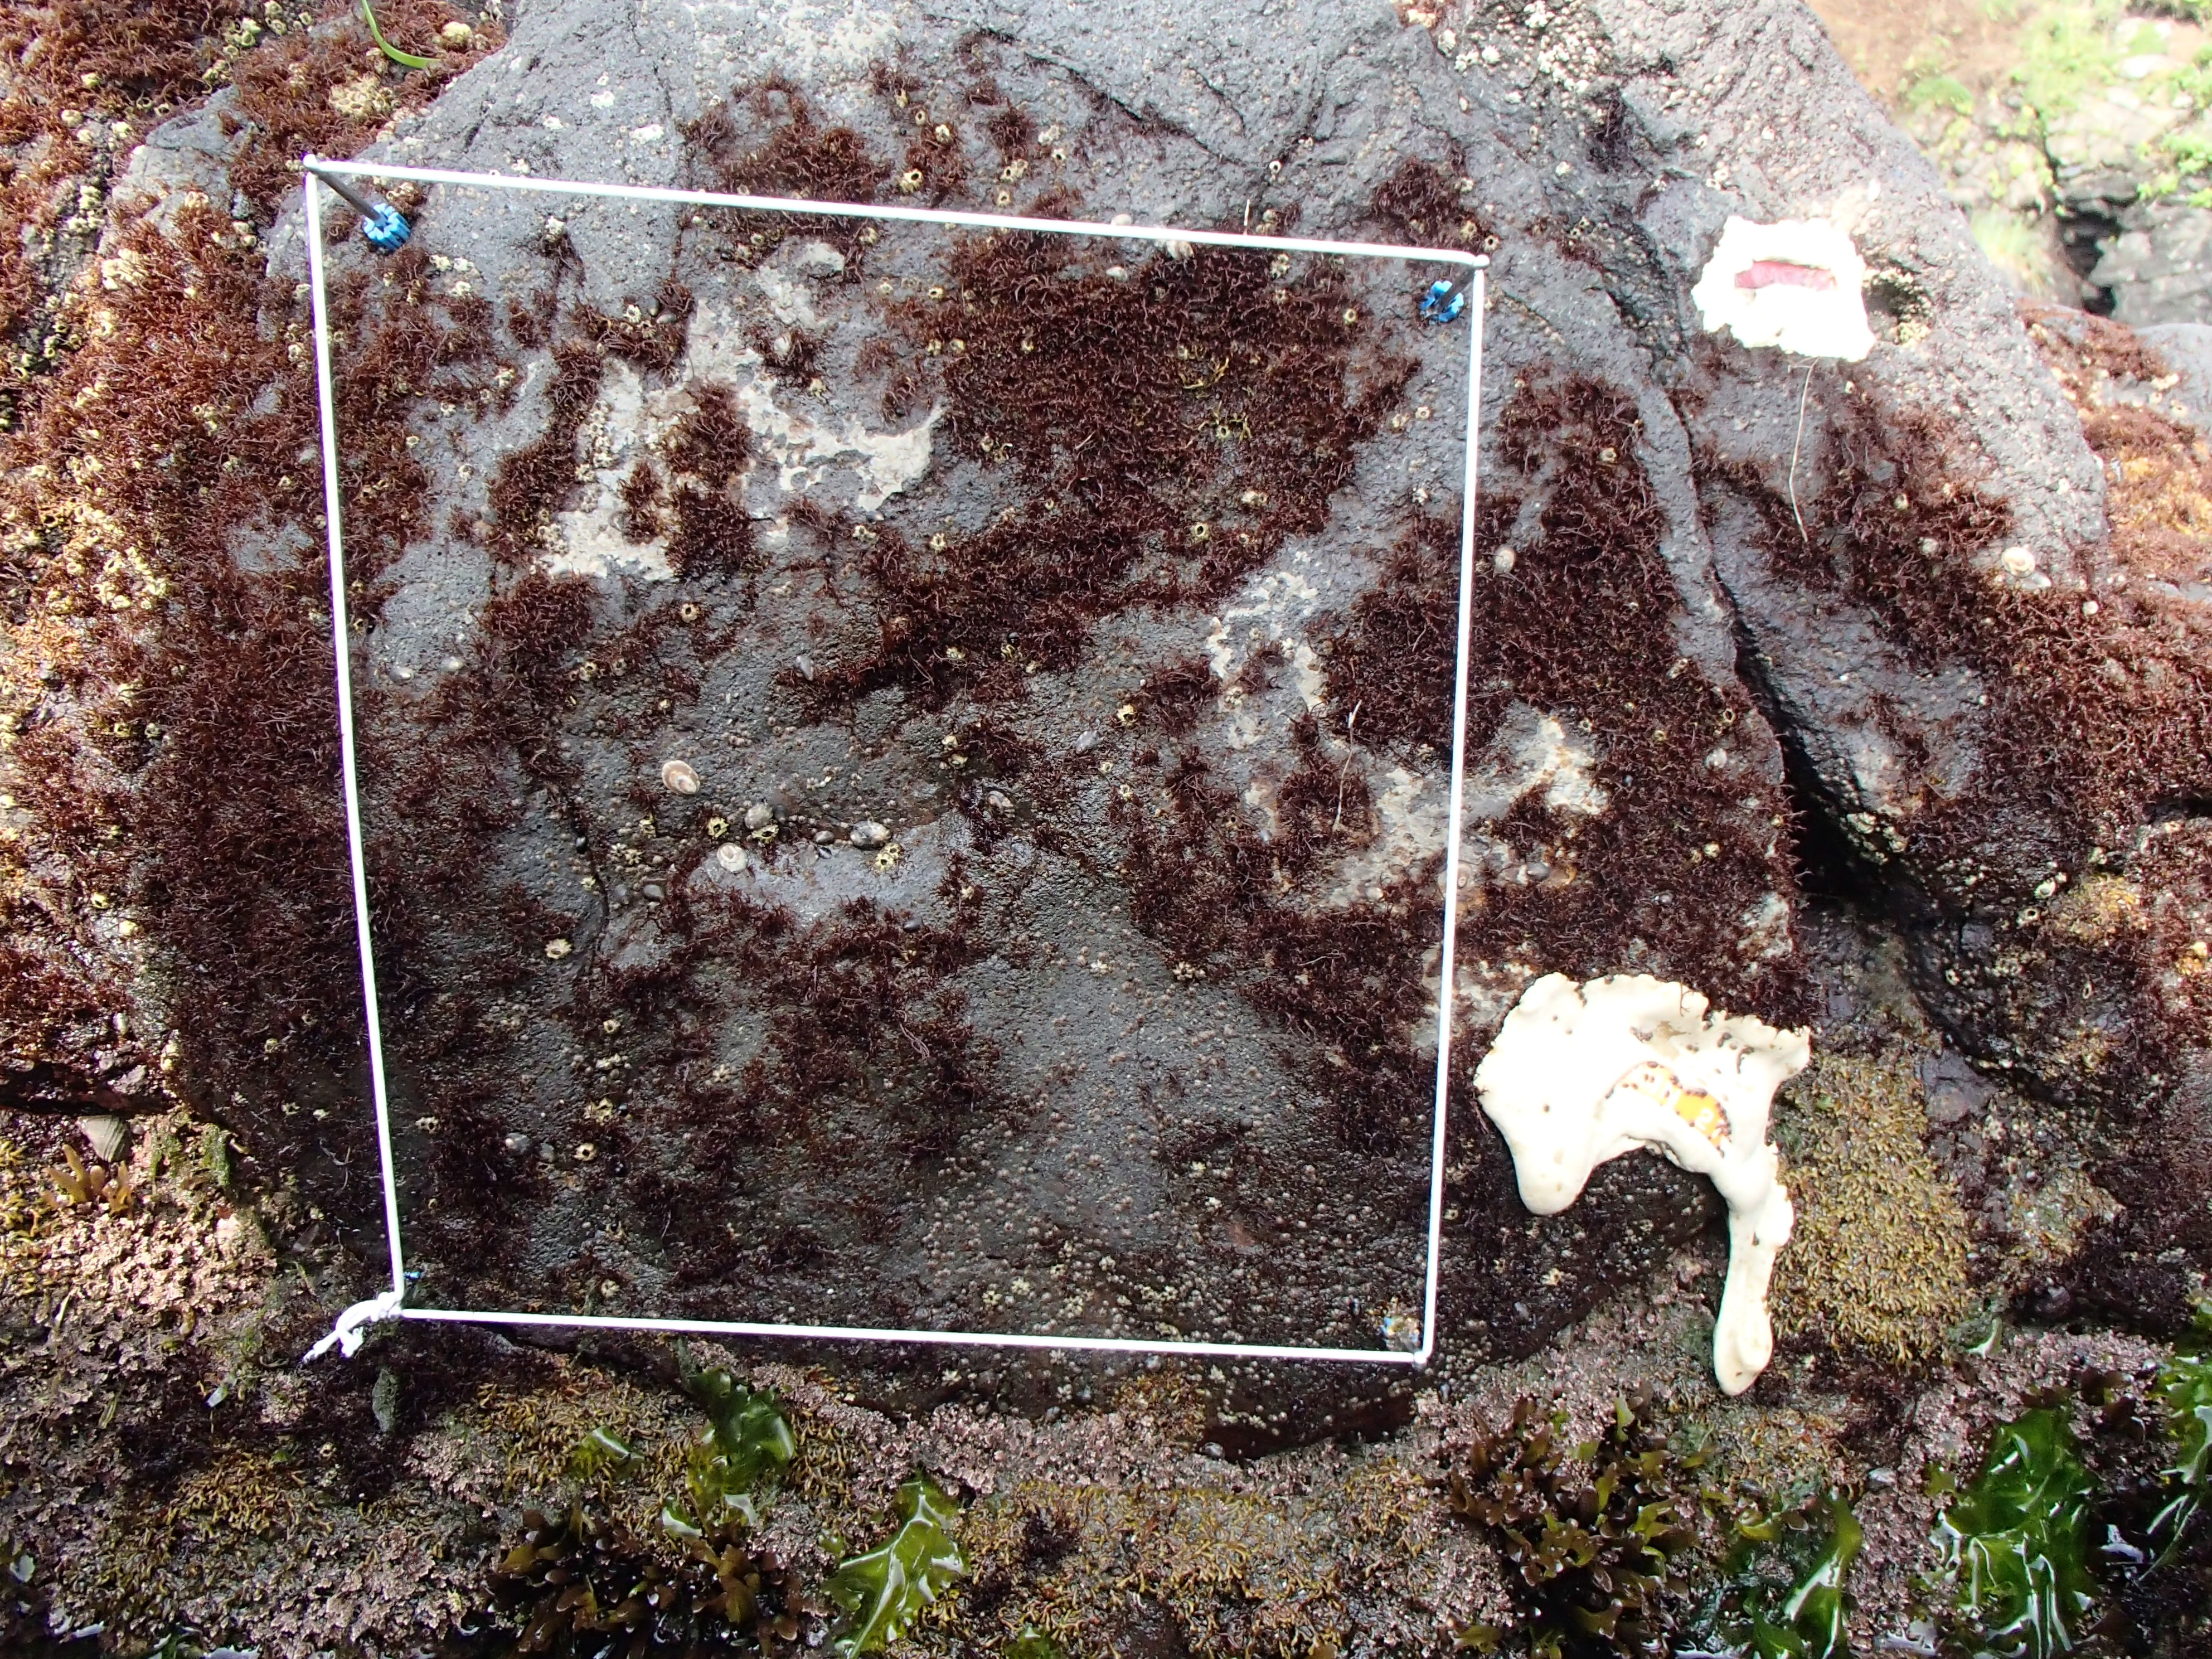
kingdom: Plantae
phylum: Rhodophyta
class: Florideophyceae
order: Gigartinales
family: Endocladiaceae
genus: Gloiopeltis
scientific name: Gloiopeltis furcata
